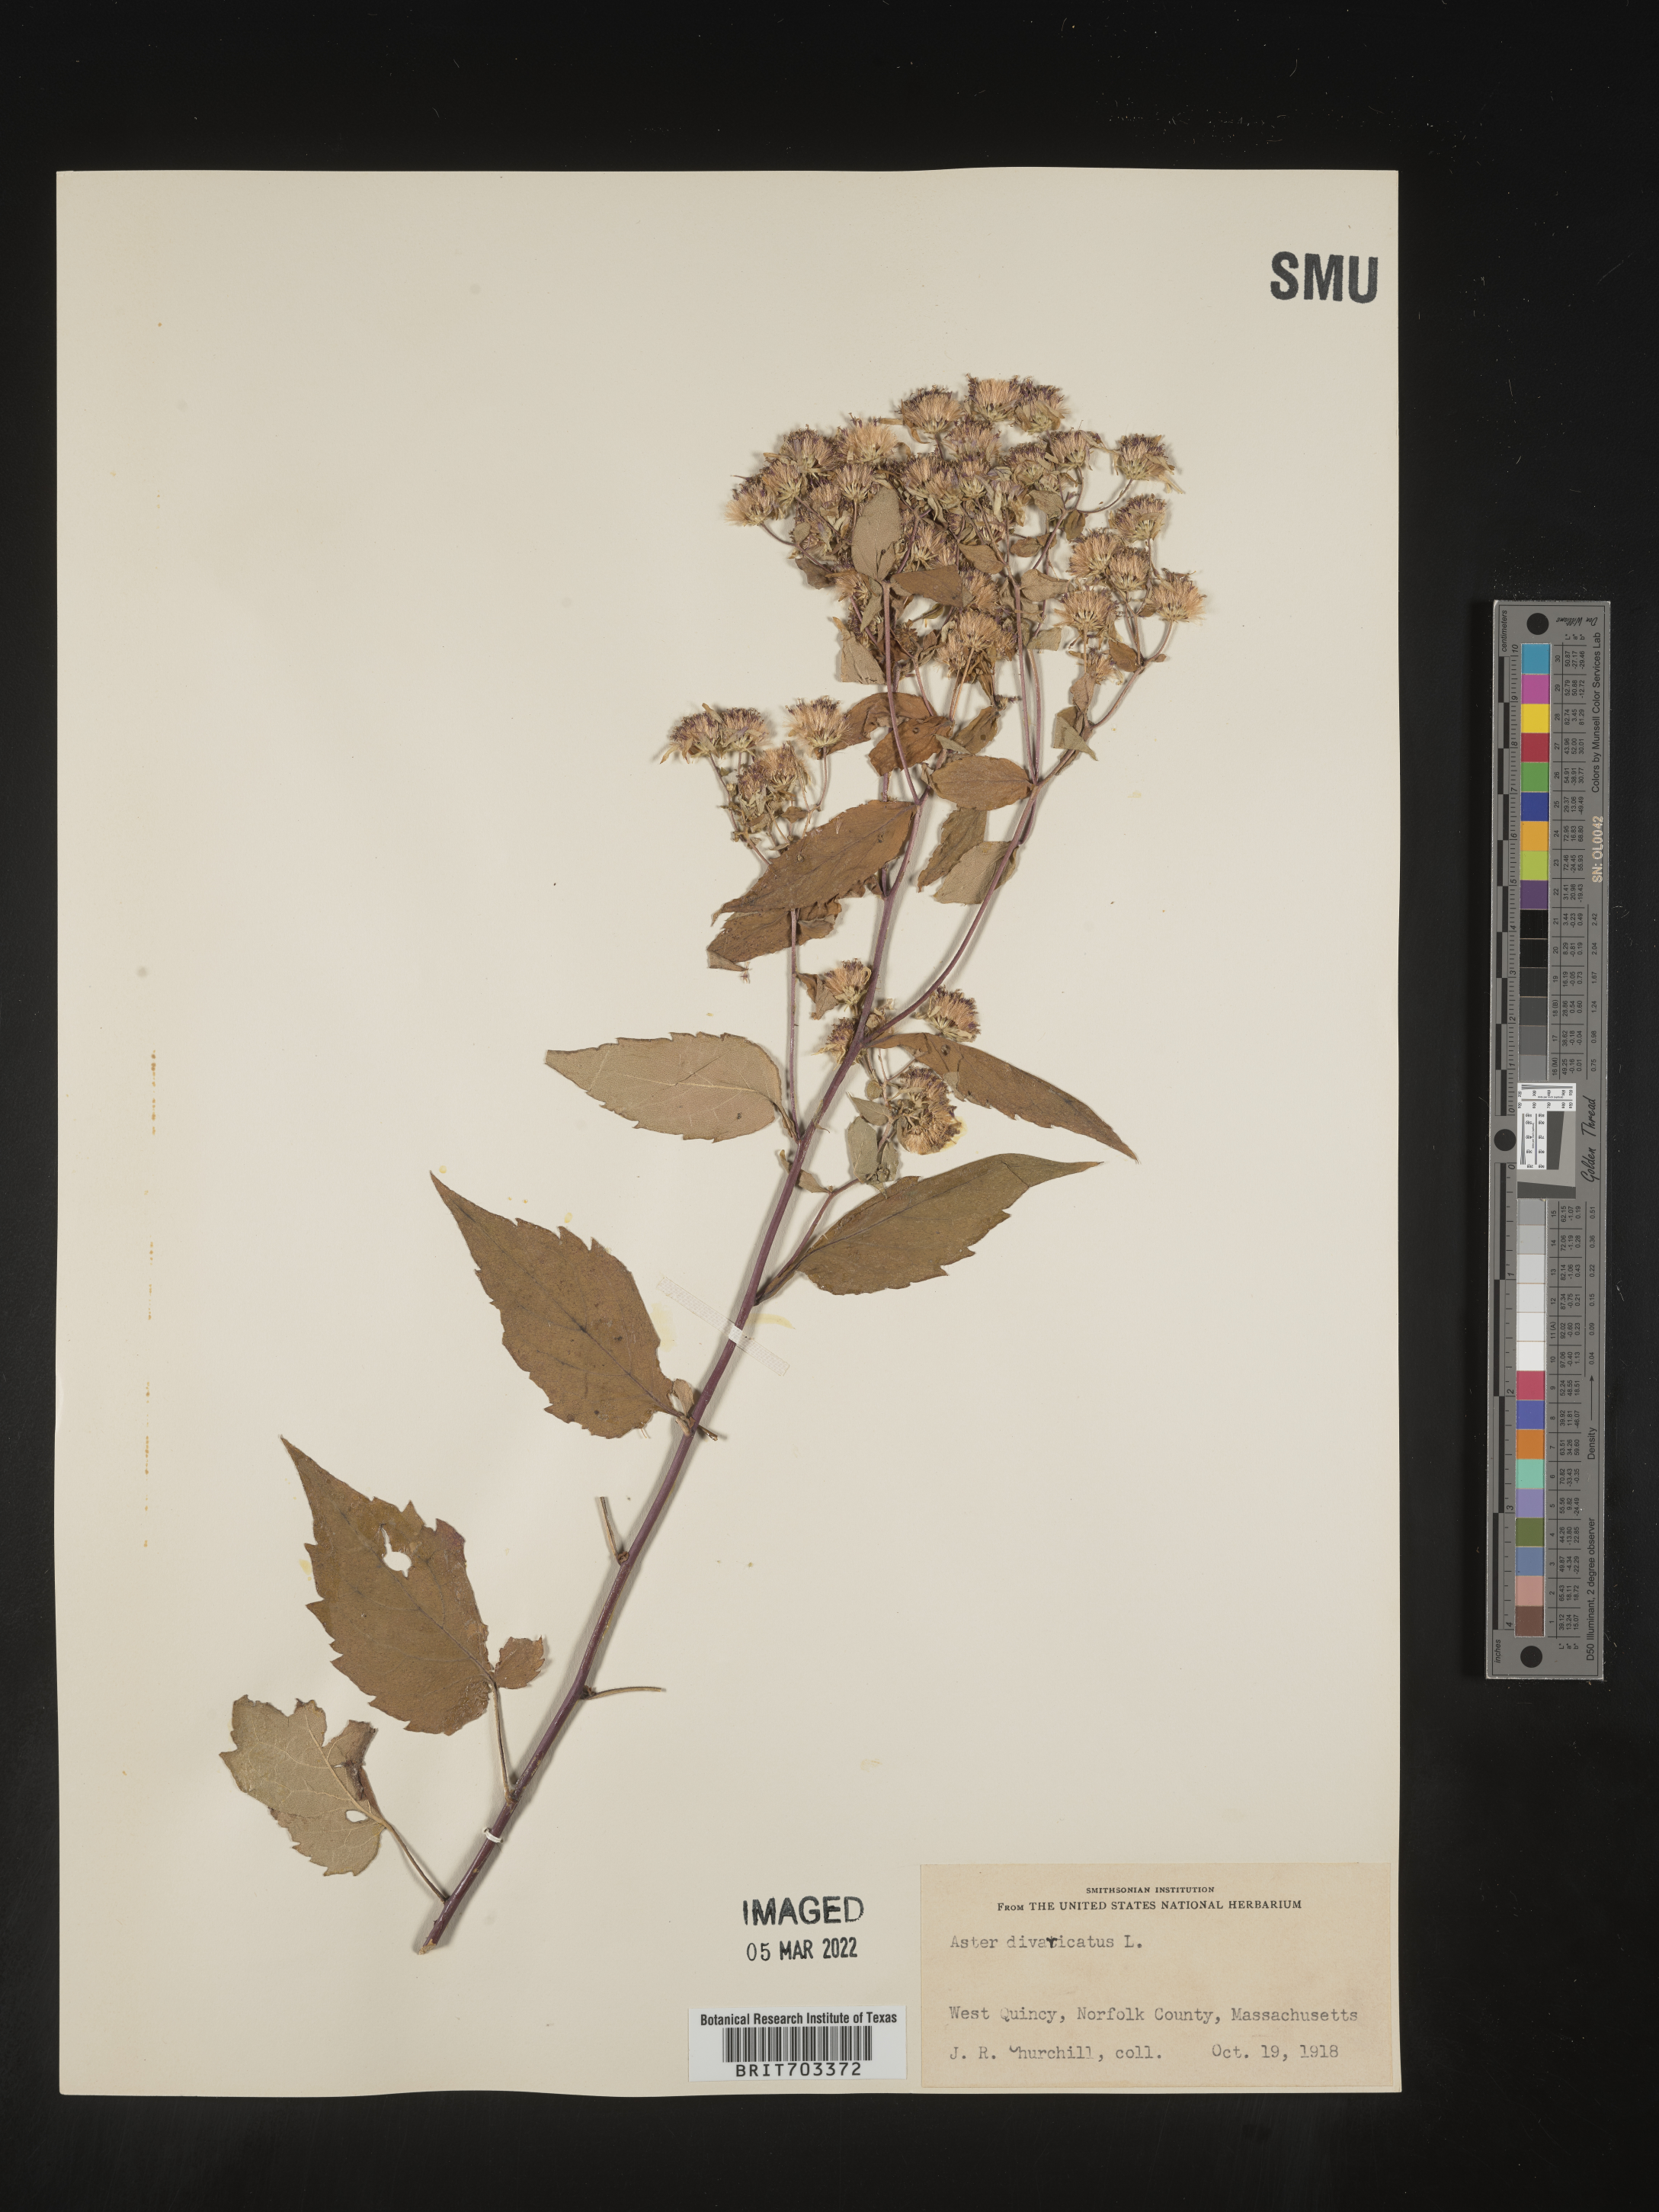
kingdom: Plantae
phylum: Tracheophyta
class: Magnoliopsida
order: Asterales
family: Asteraceae
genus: Eurybia
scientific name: Eurybia divaricata
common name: White wood aster
